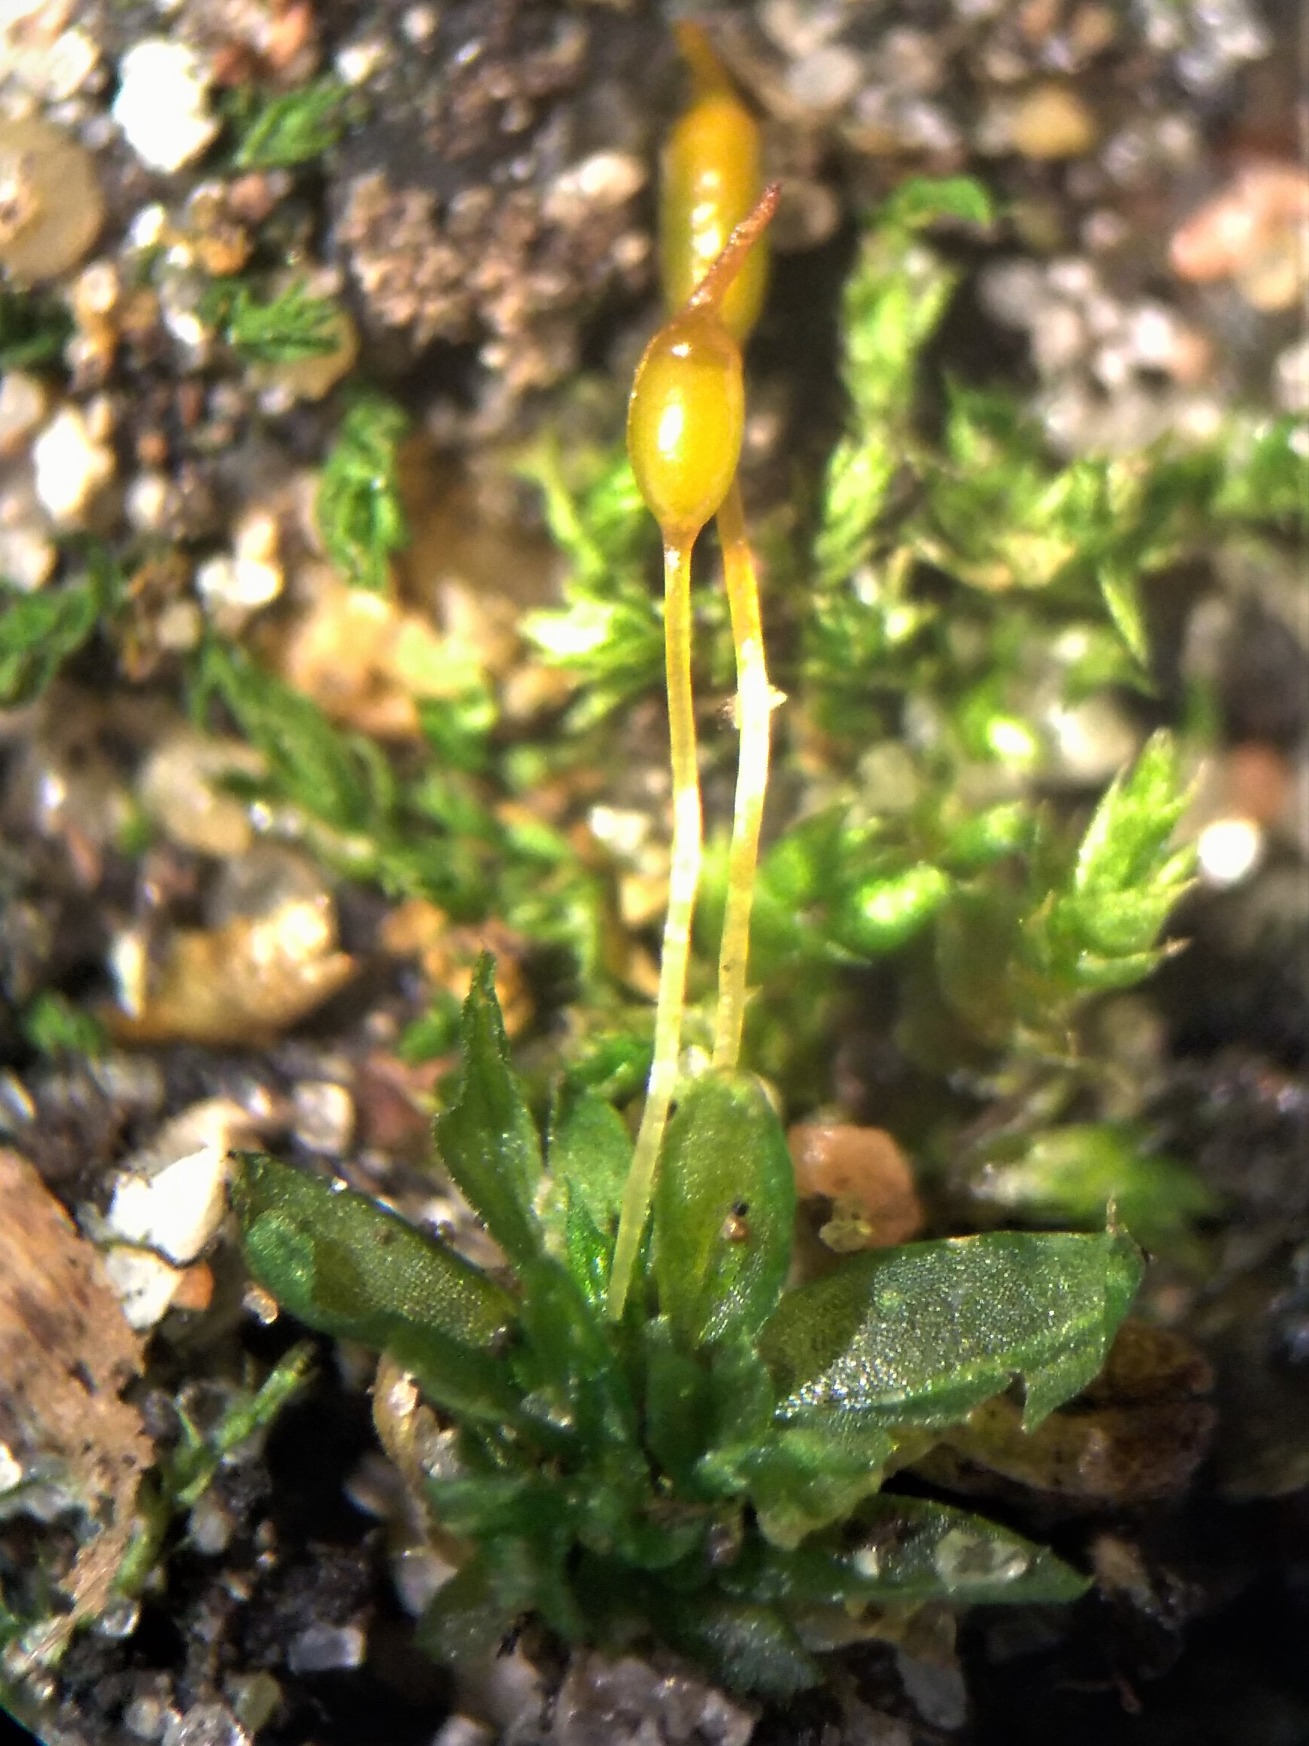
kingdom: Plantae
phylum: Bryophyta
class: Bryopsida
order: Pottiales
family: Pottiaceae
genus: Tortula
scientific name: Tortula caucasica
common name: Mark-bægermos
